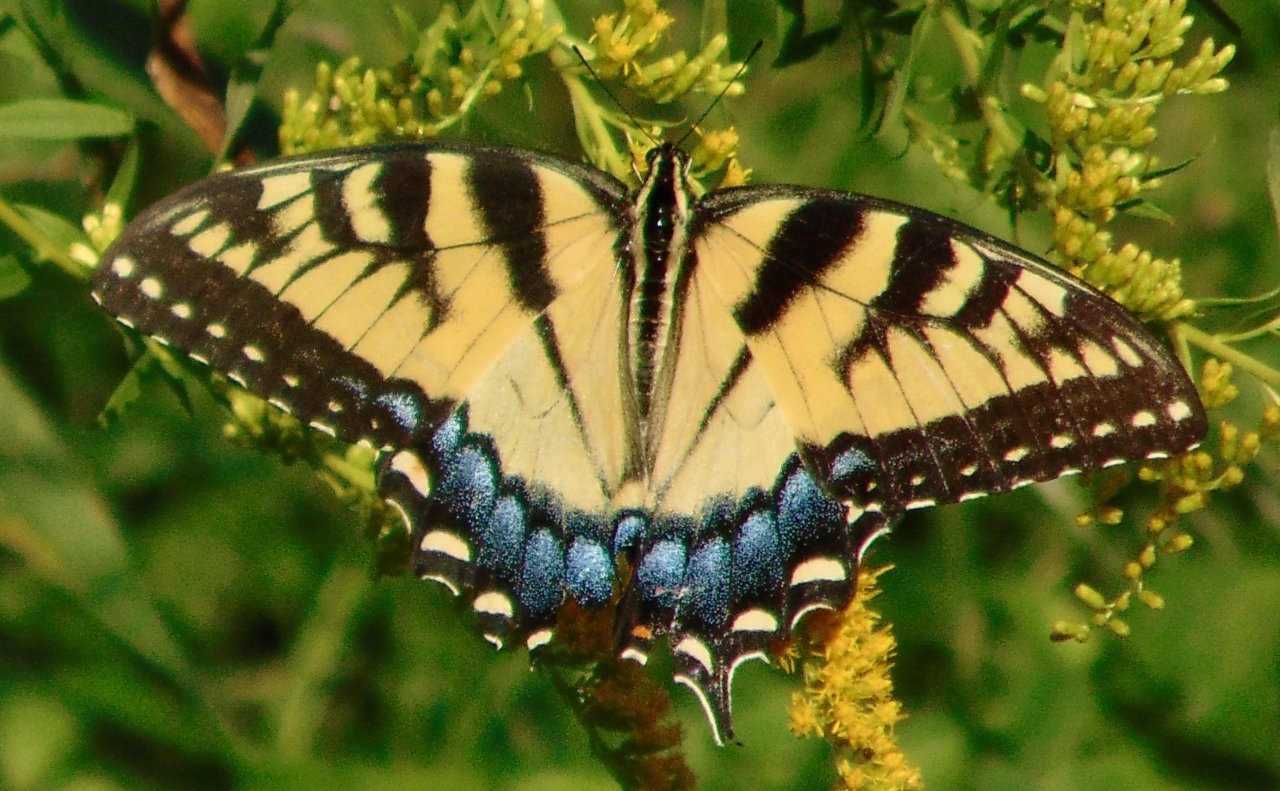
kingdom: Animalia
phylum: Arthropoda
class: Insecta
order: Lepidoptera
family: Papilionidae
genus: Pterourus
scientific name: Pterourus glaucus
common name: Eastern Tiger Swallowtail
